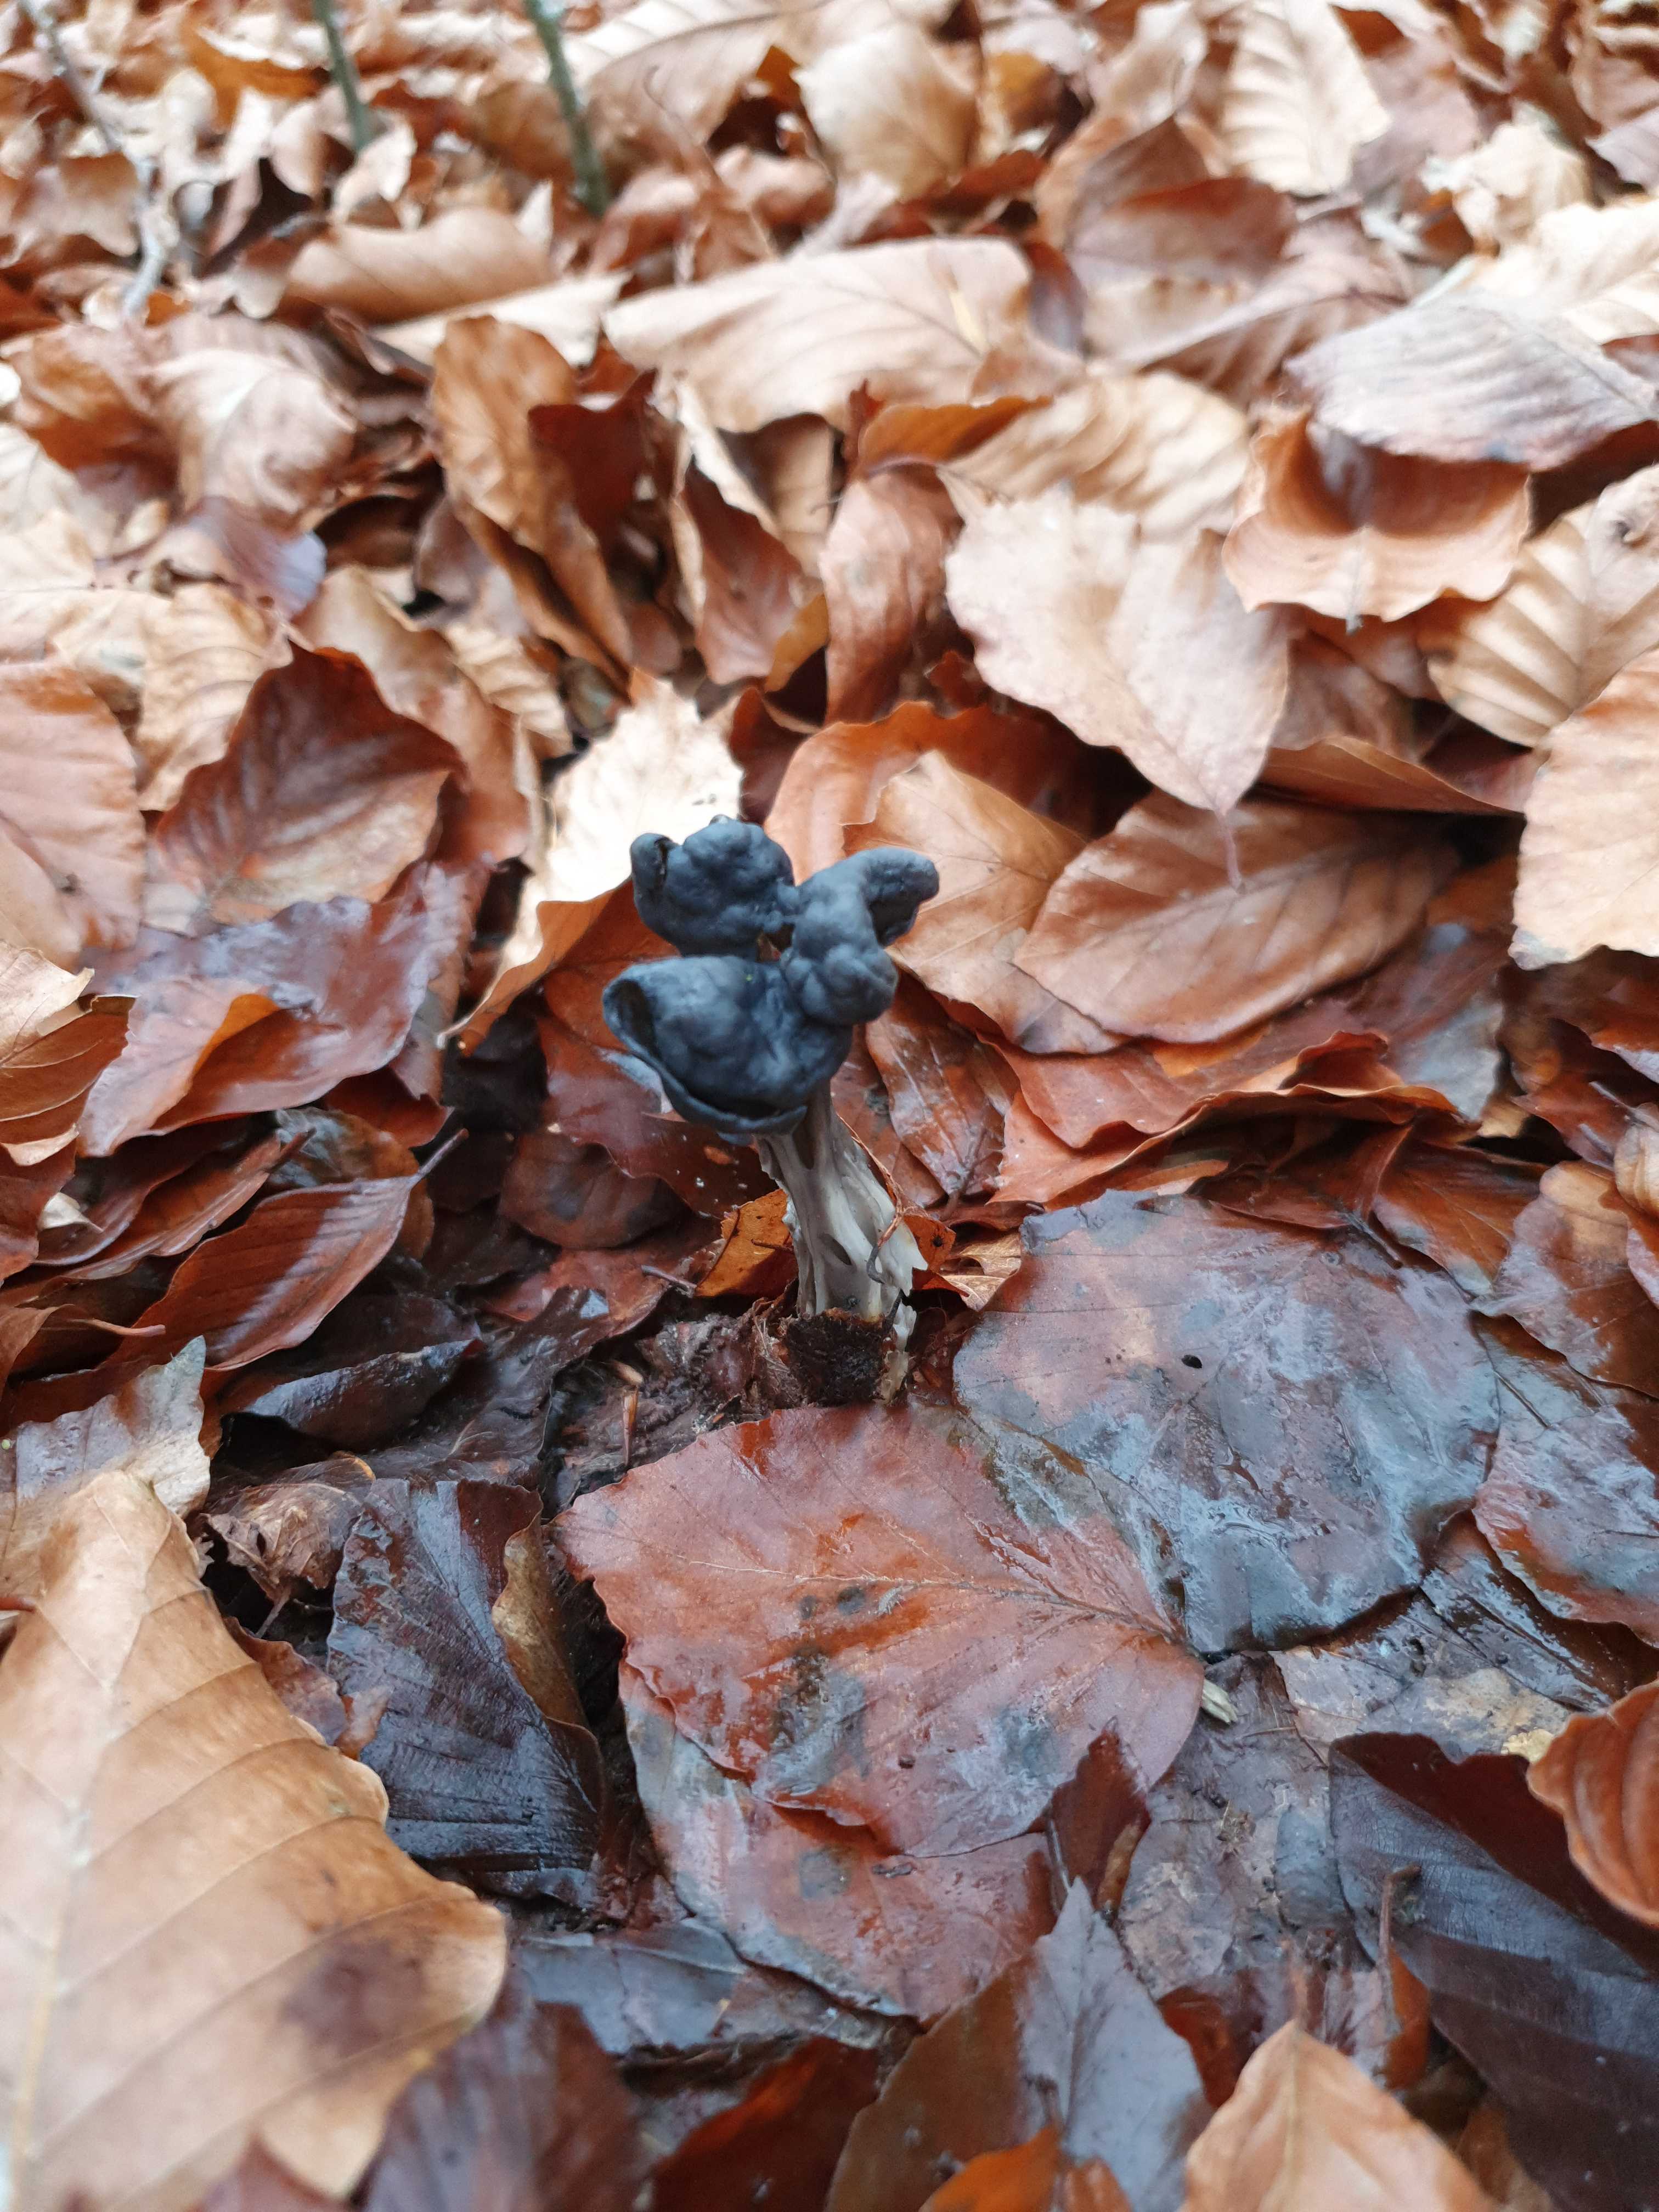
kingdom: Fungi
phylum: Ascomycota
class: Pezizomycetes
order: Pezizales
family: Helvellaceae
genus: Helvella
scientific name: Helvella lacunosa
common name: grubet foldhat
